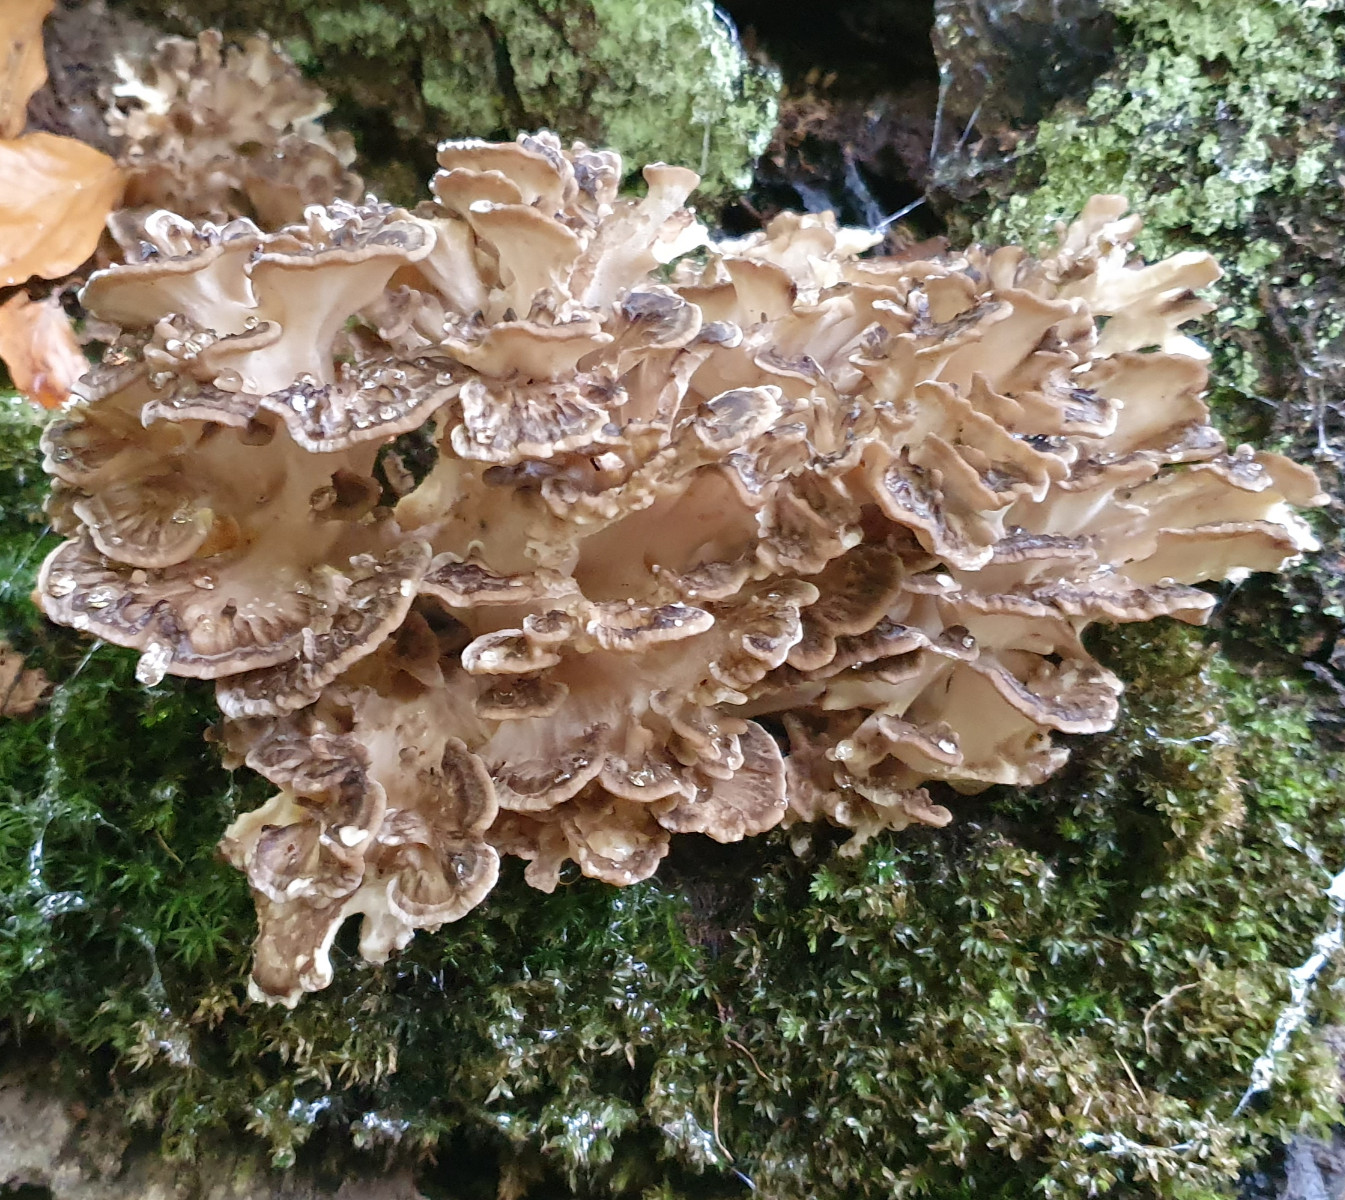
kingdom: Fungi
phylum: Basidiomycota
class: Agaricomycetes
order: Polyporales
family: Grifolaceae
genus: Grifola
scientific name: Grifola frondosa
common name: tueporesvamp
